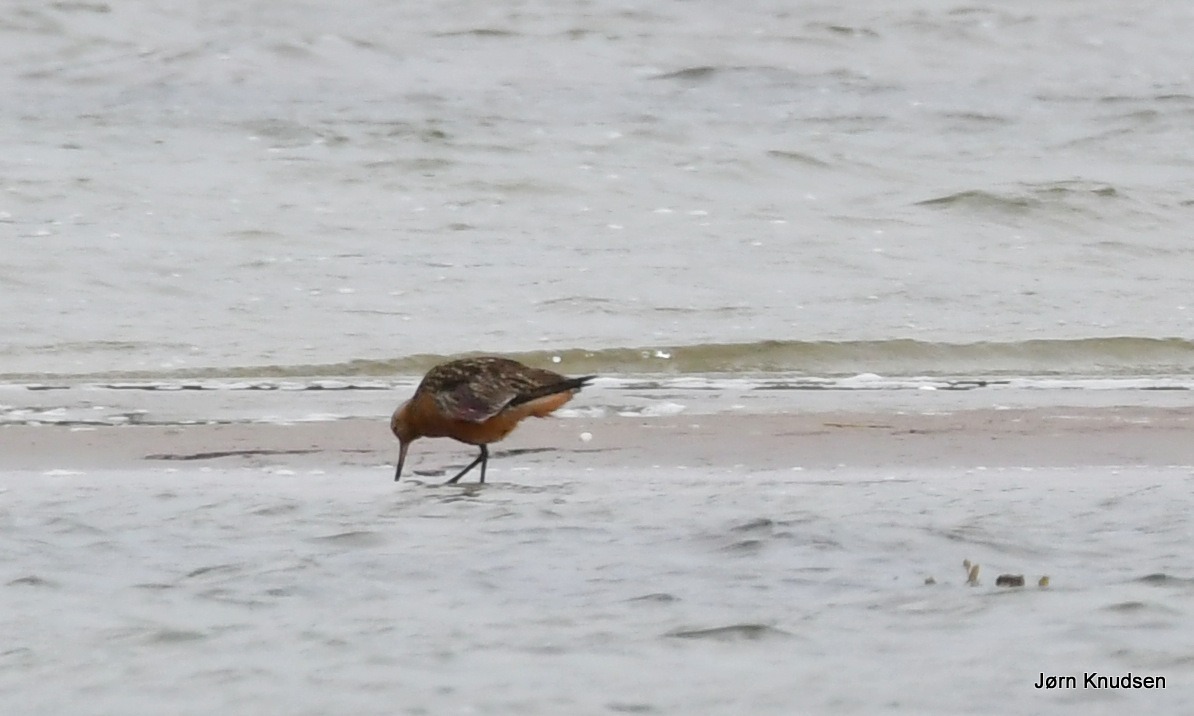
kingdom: Animalia
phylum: Chordata
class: Aves
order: Charadriiformes
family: Scolopacidae
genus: Limosa
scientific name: Limosa lapponica
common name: Lille kobbersneppe
